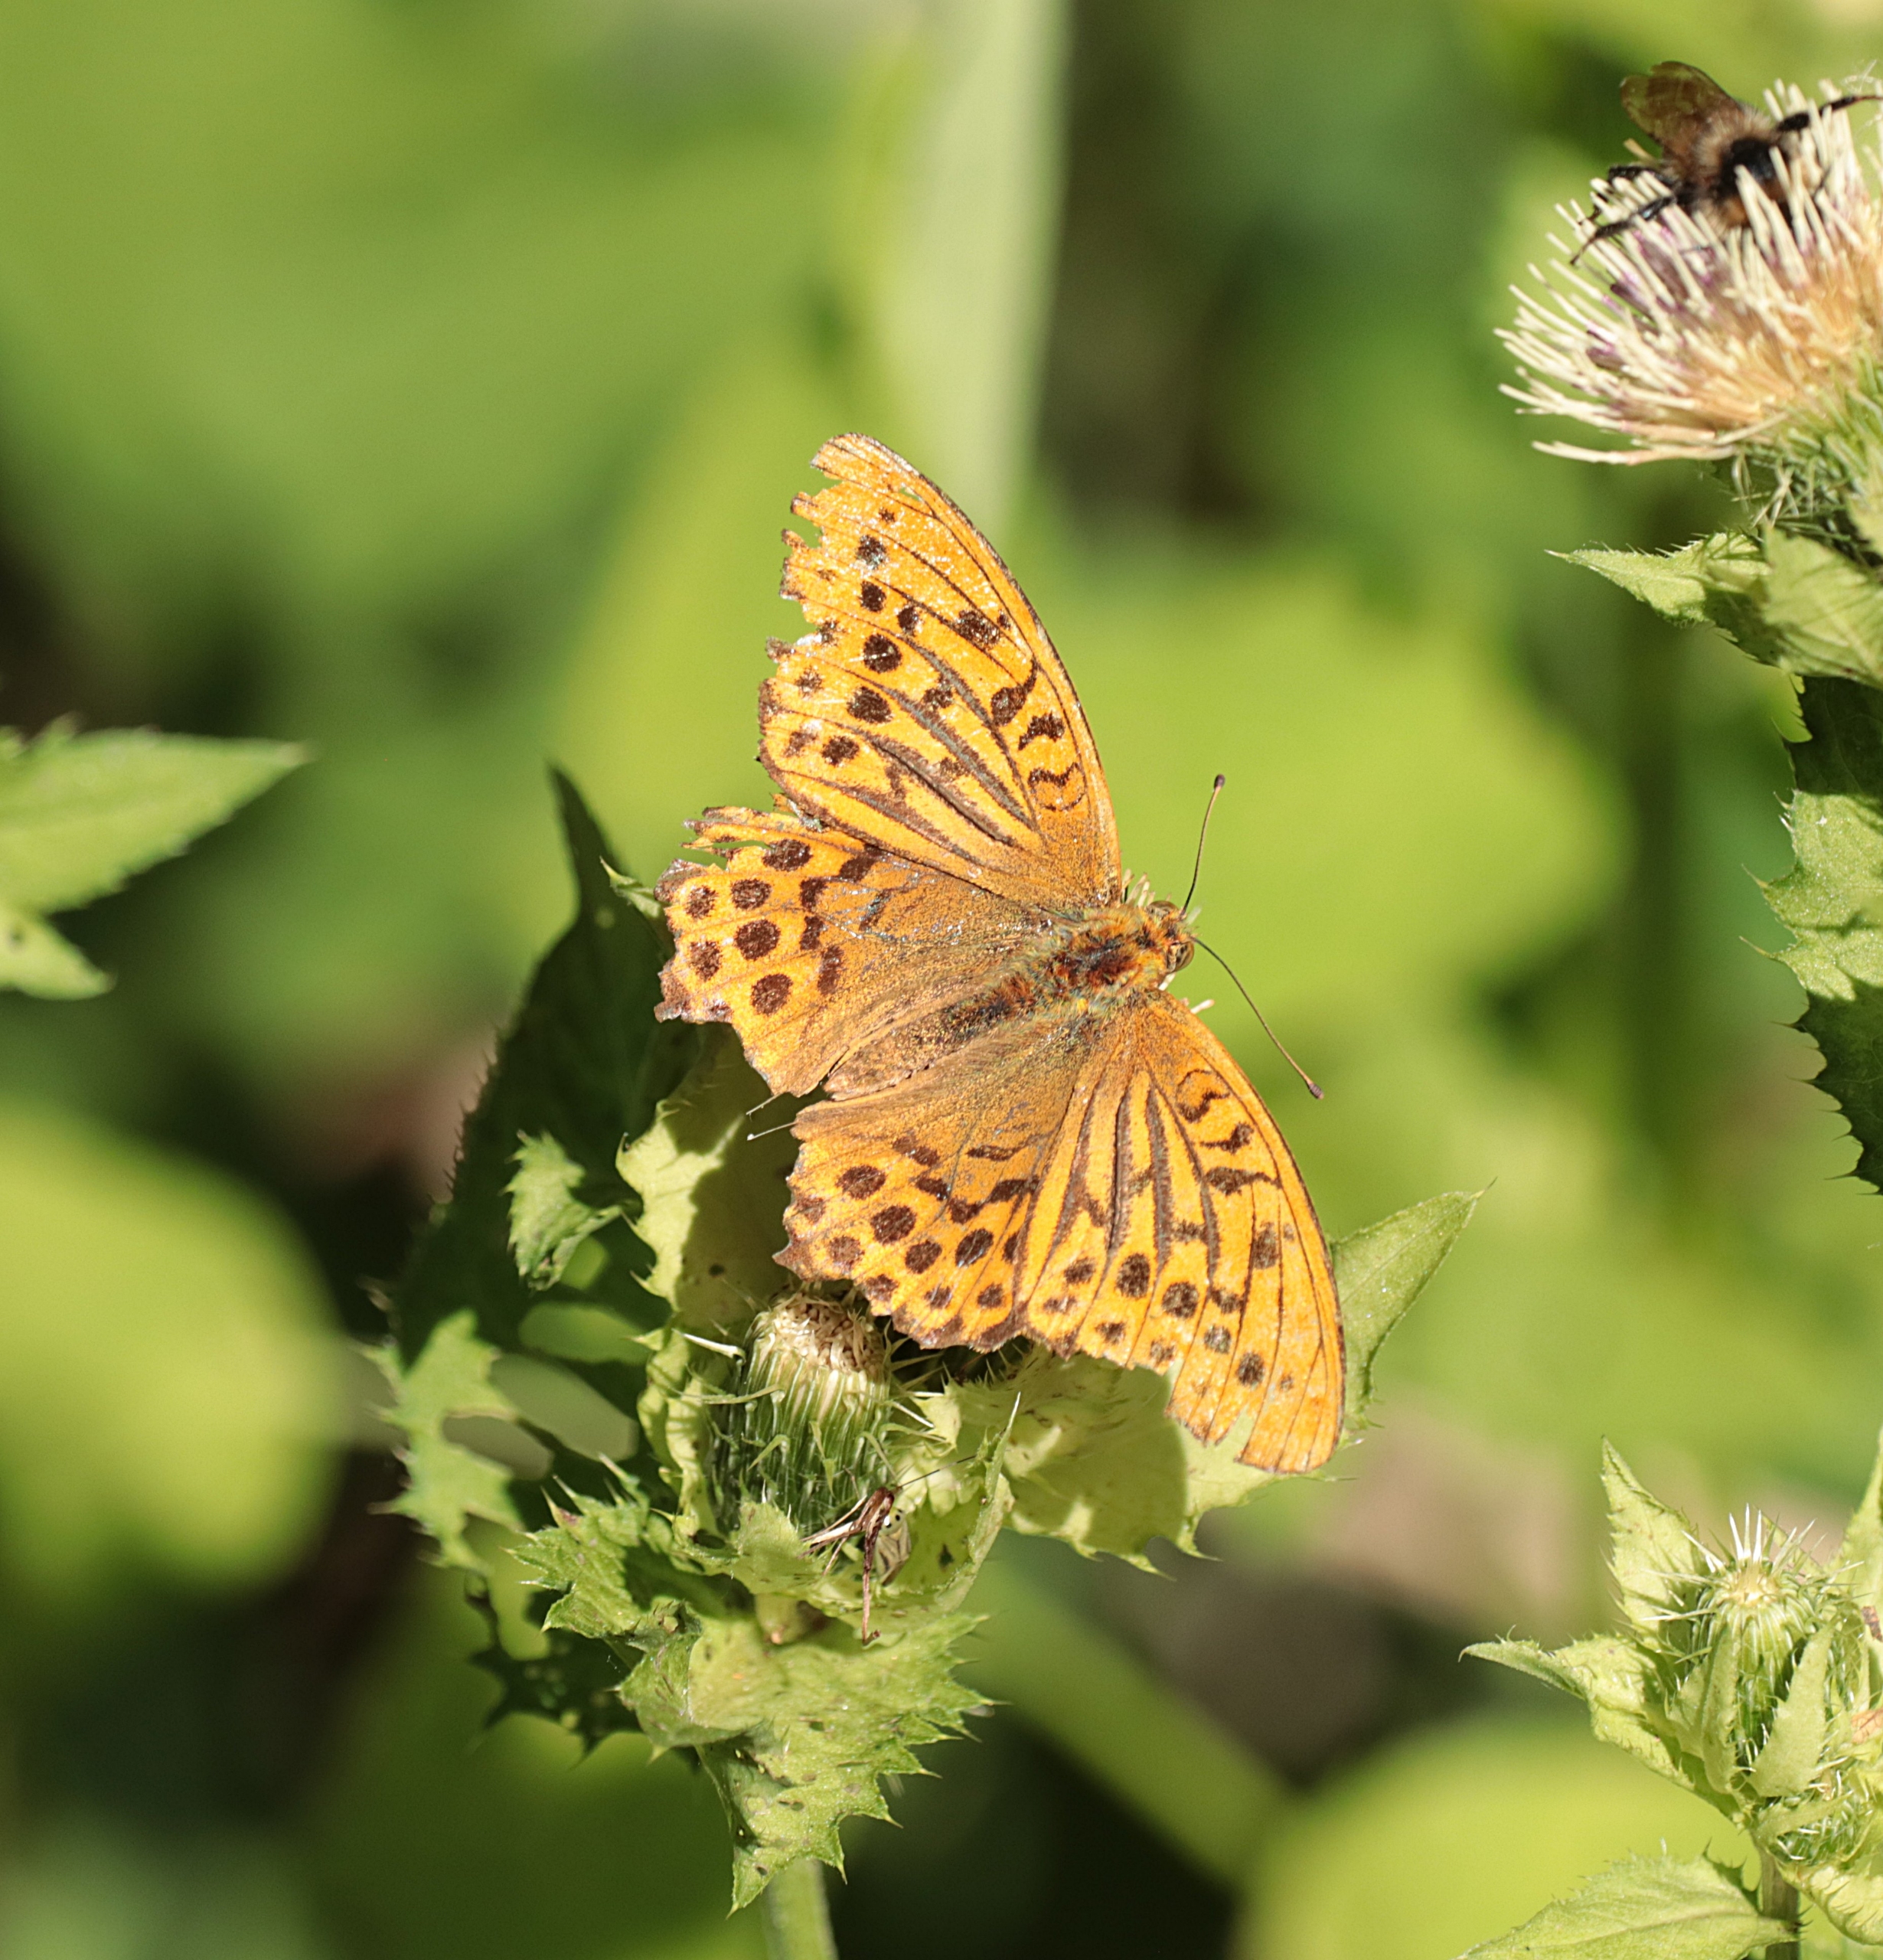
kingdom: Animalia
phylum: Arthropoda
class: Insecta
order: Lepidoptera
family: Nymphalidae
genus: Argynnis
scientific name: Argynnis paphia
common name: Kejserkåbe
